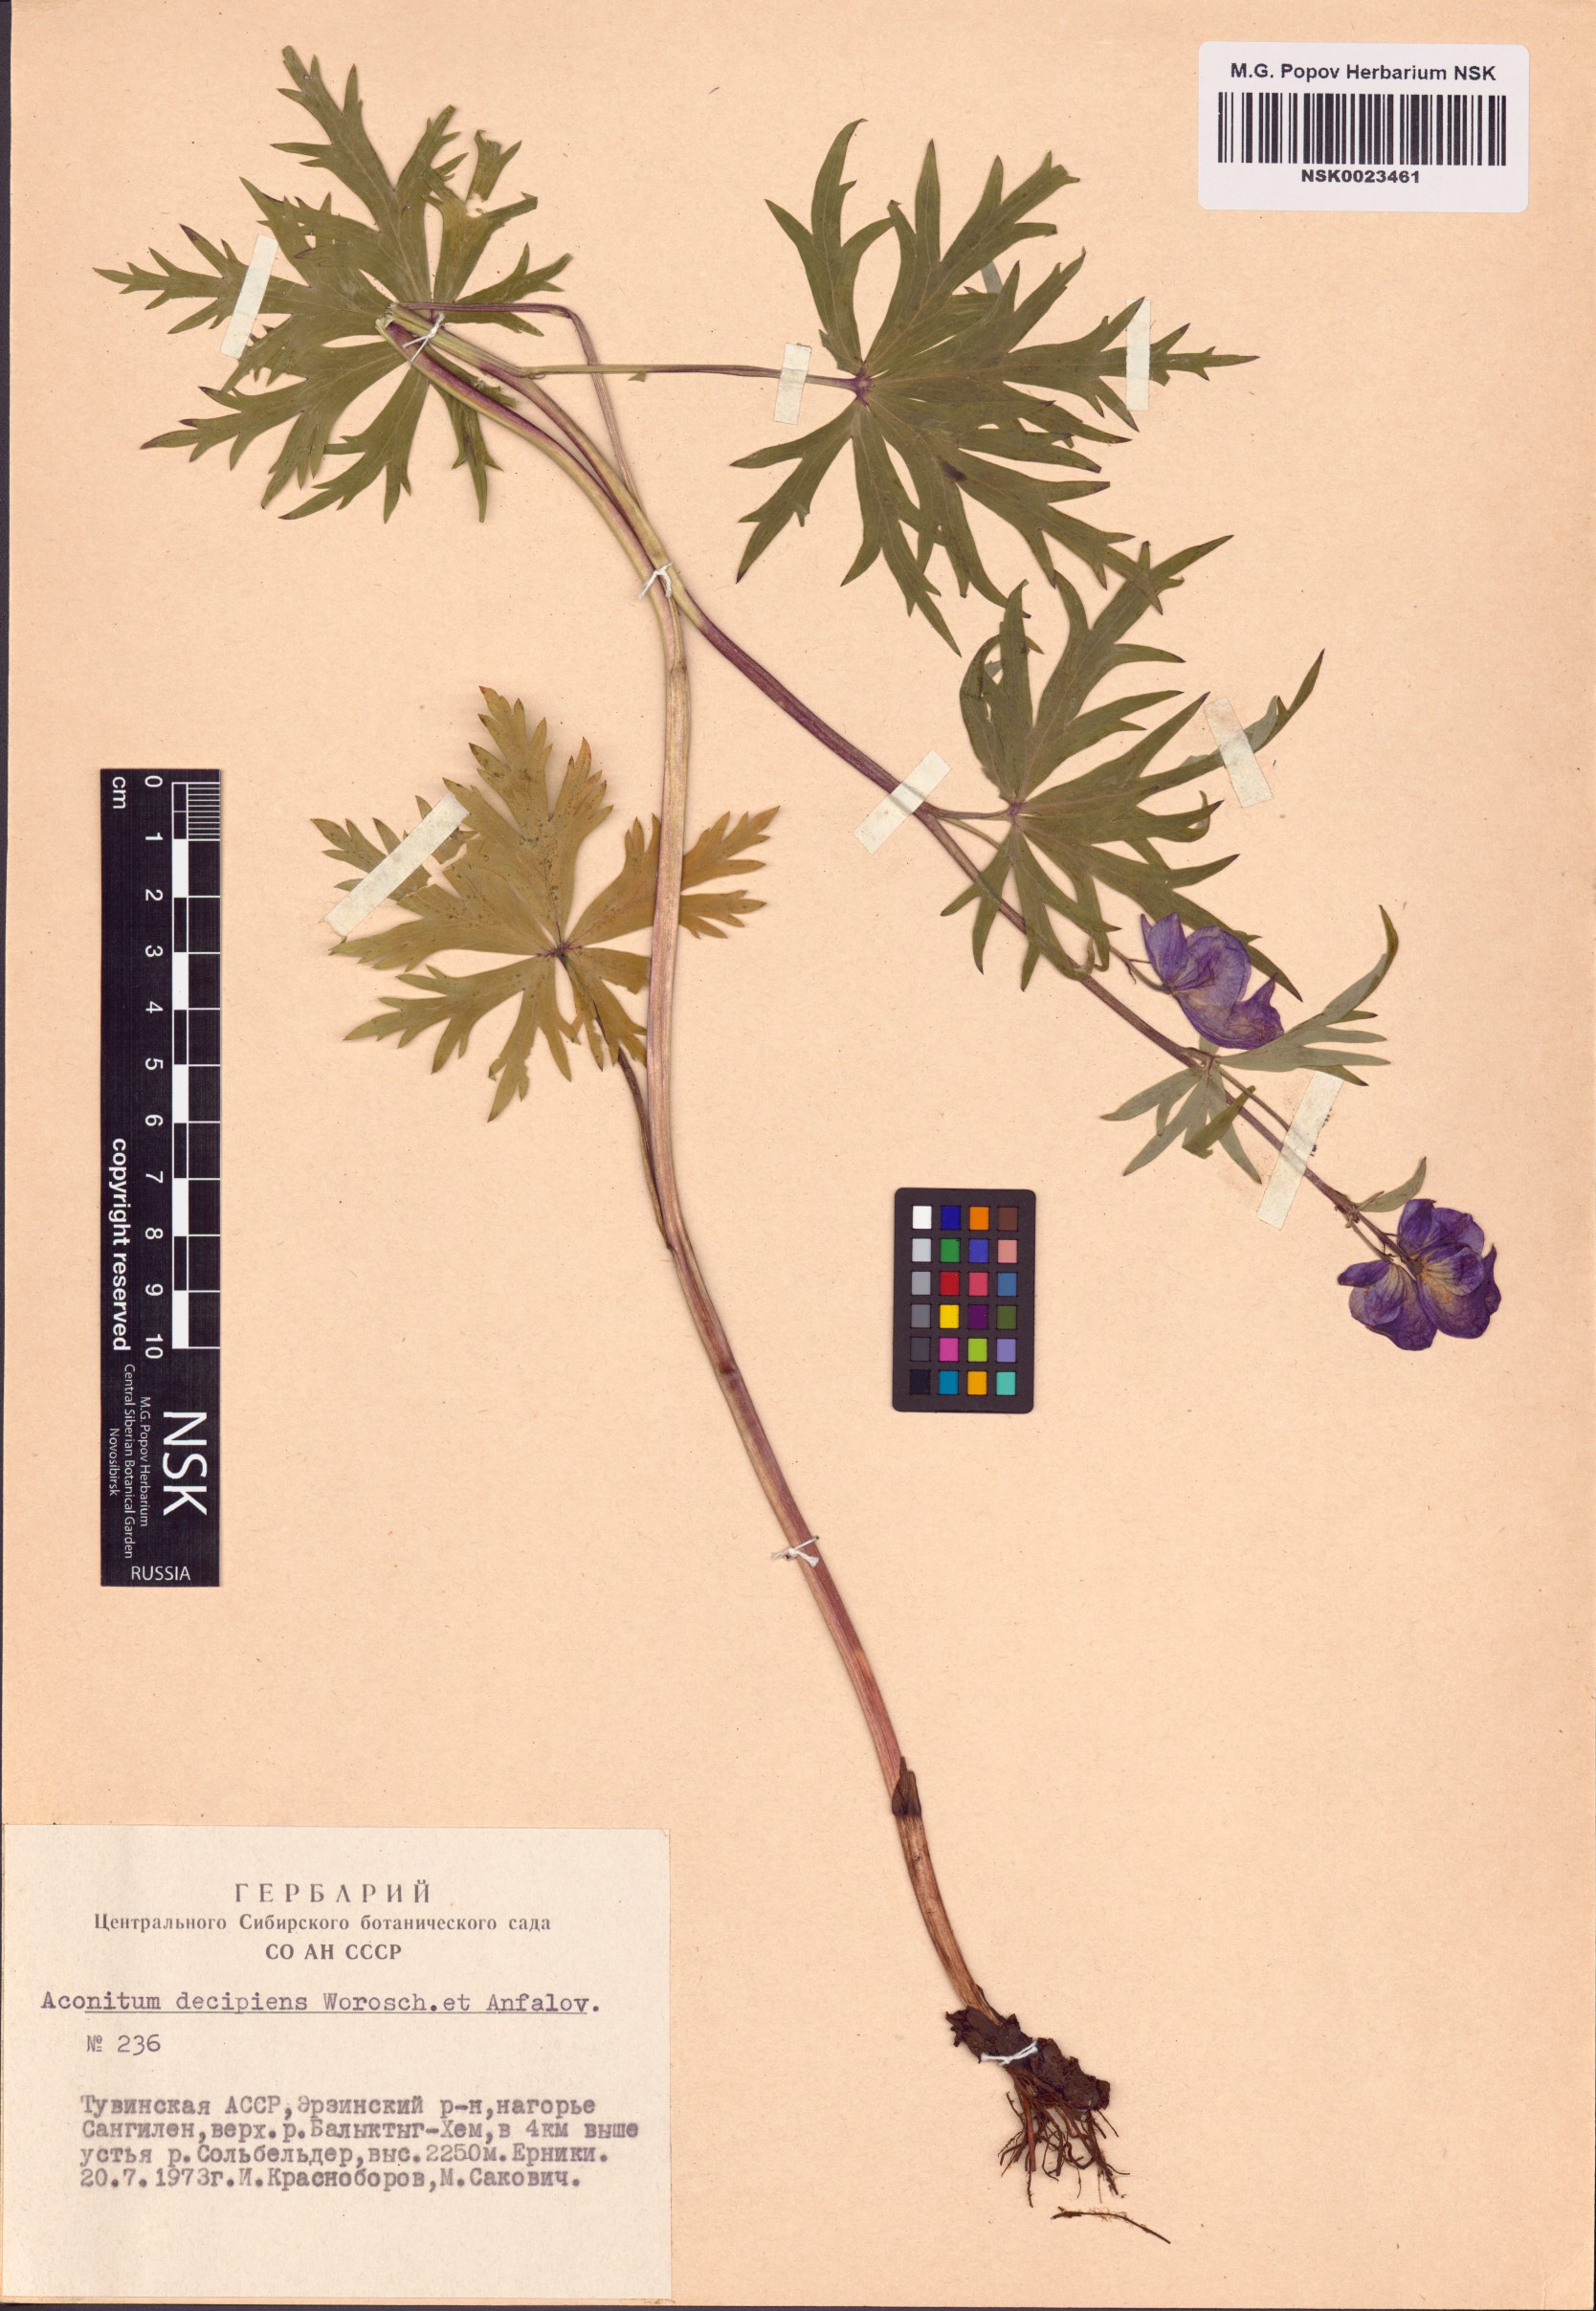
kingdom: Plantae
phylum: Tracheophyta
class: Magnoliopsida
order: Ranunculales
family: Ranunculaceae
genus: Aconitum
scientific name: Aconitum decipiens
